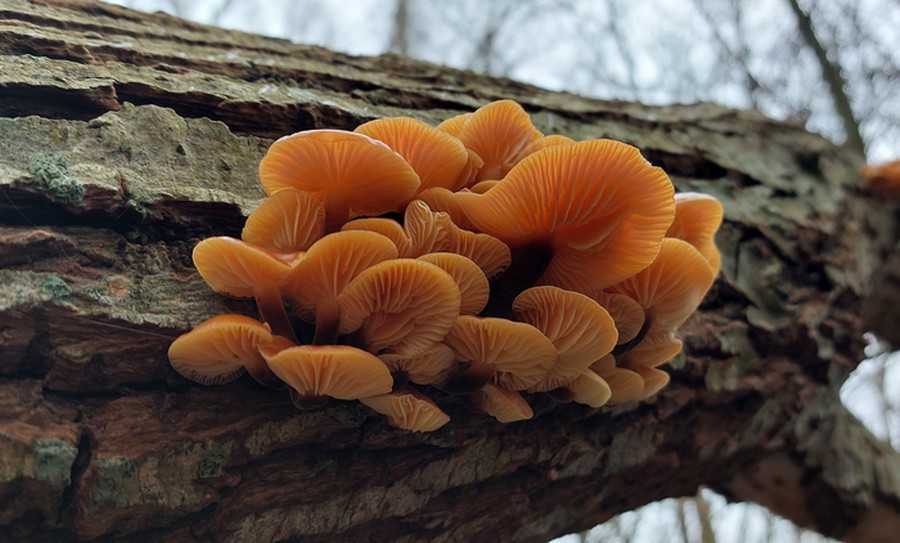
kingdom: Fungi
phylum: Basidiomycota
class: Agaricomycetes
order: Agaricales
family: Physalacriaceae
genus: Flammulina
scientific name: Flammulina elastica
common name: pile-fløjlsfod
